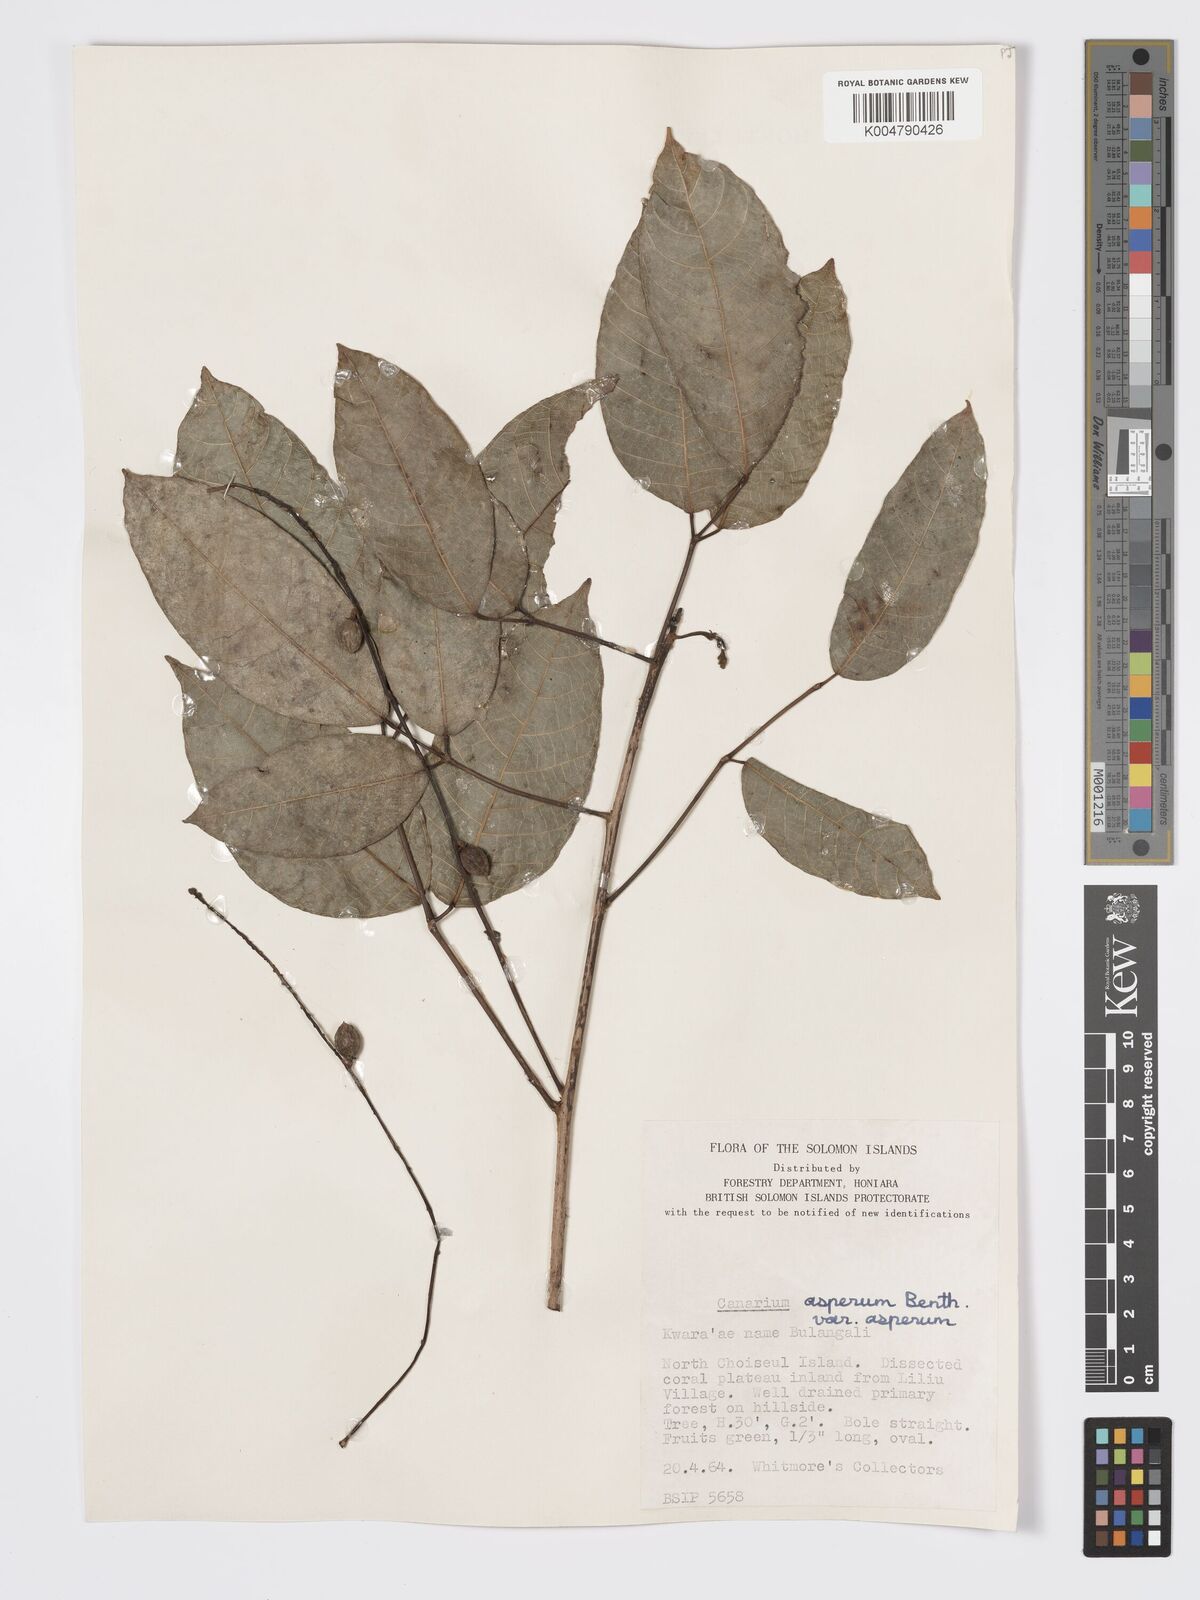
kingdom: Plantae
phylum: Tracheophyta
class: Magnoliopsida
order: Sapindales
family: Burseraceae
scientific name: Burseraceae
